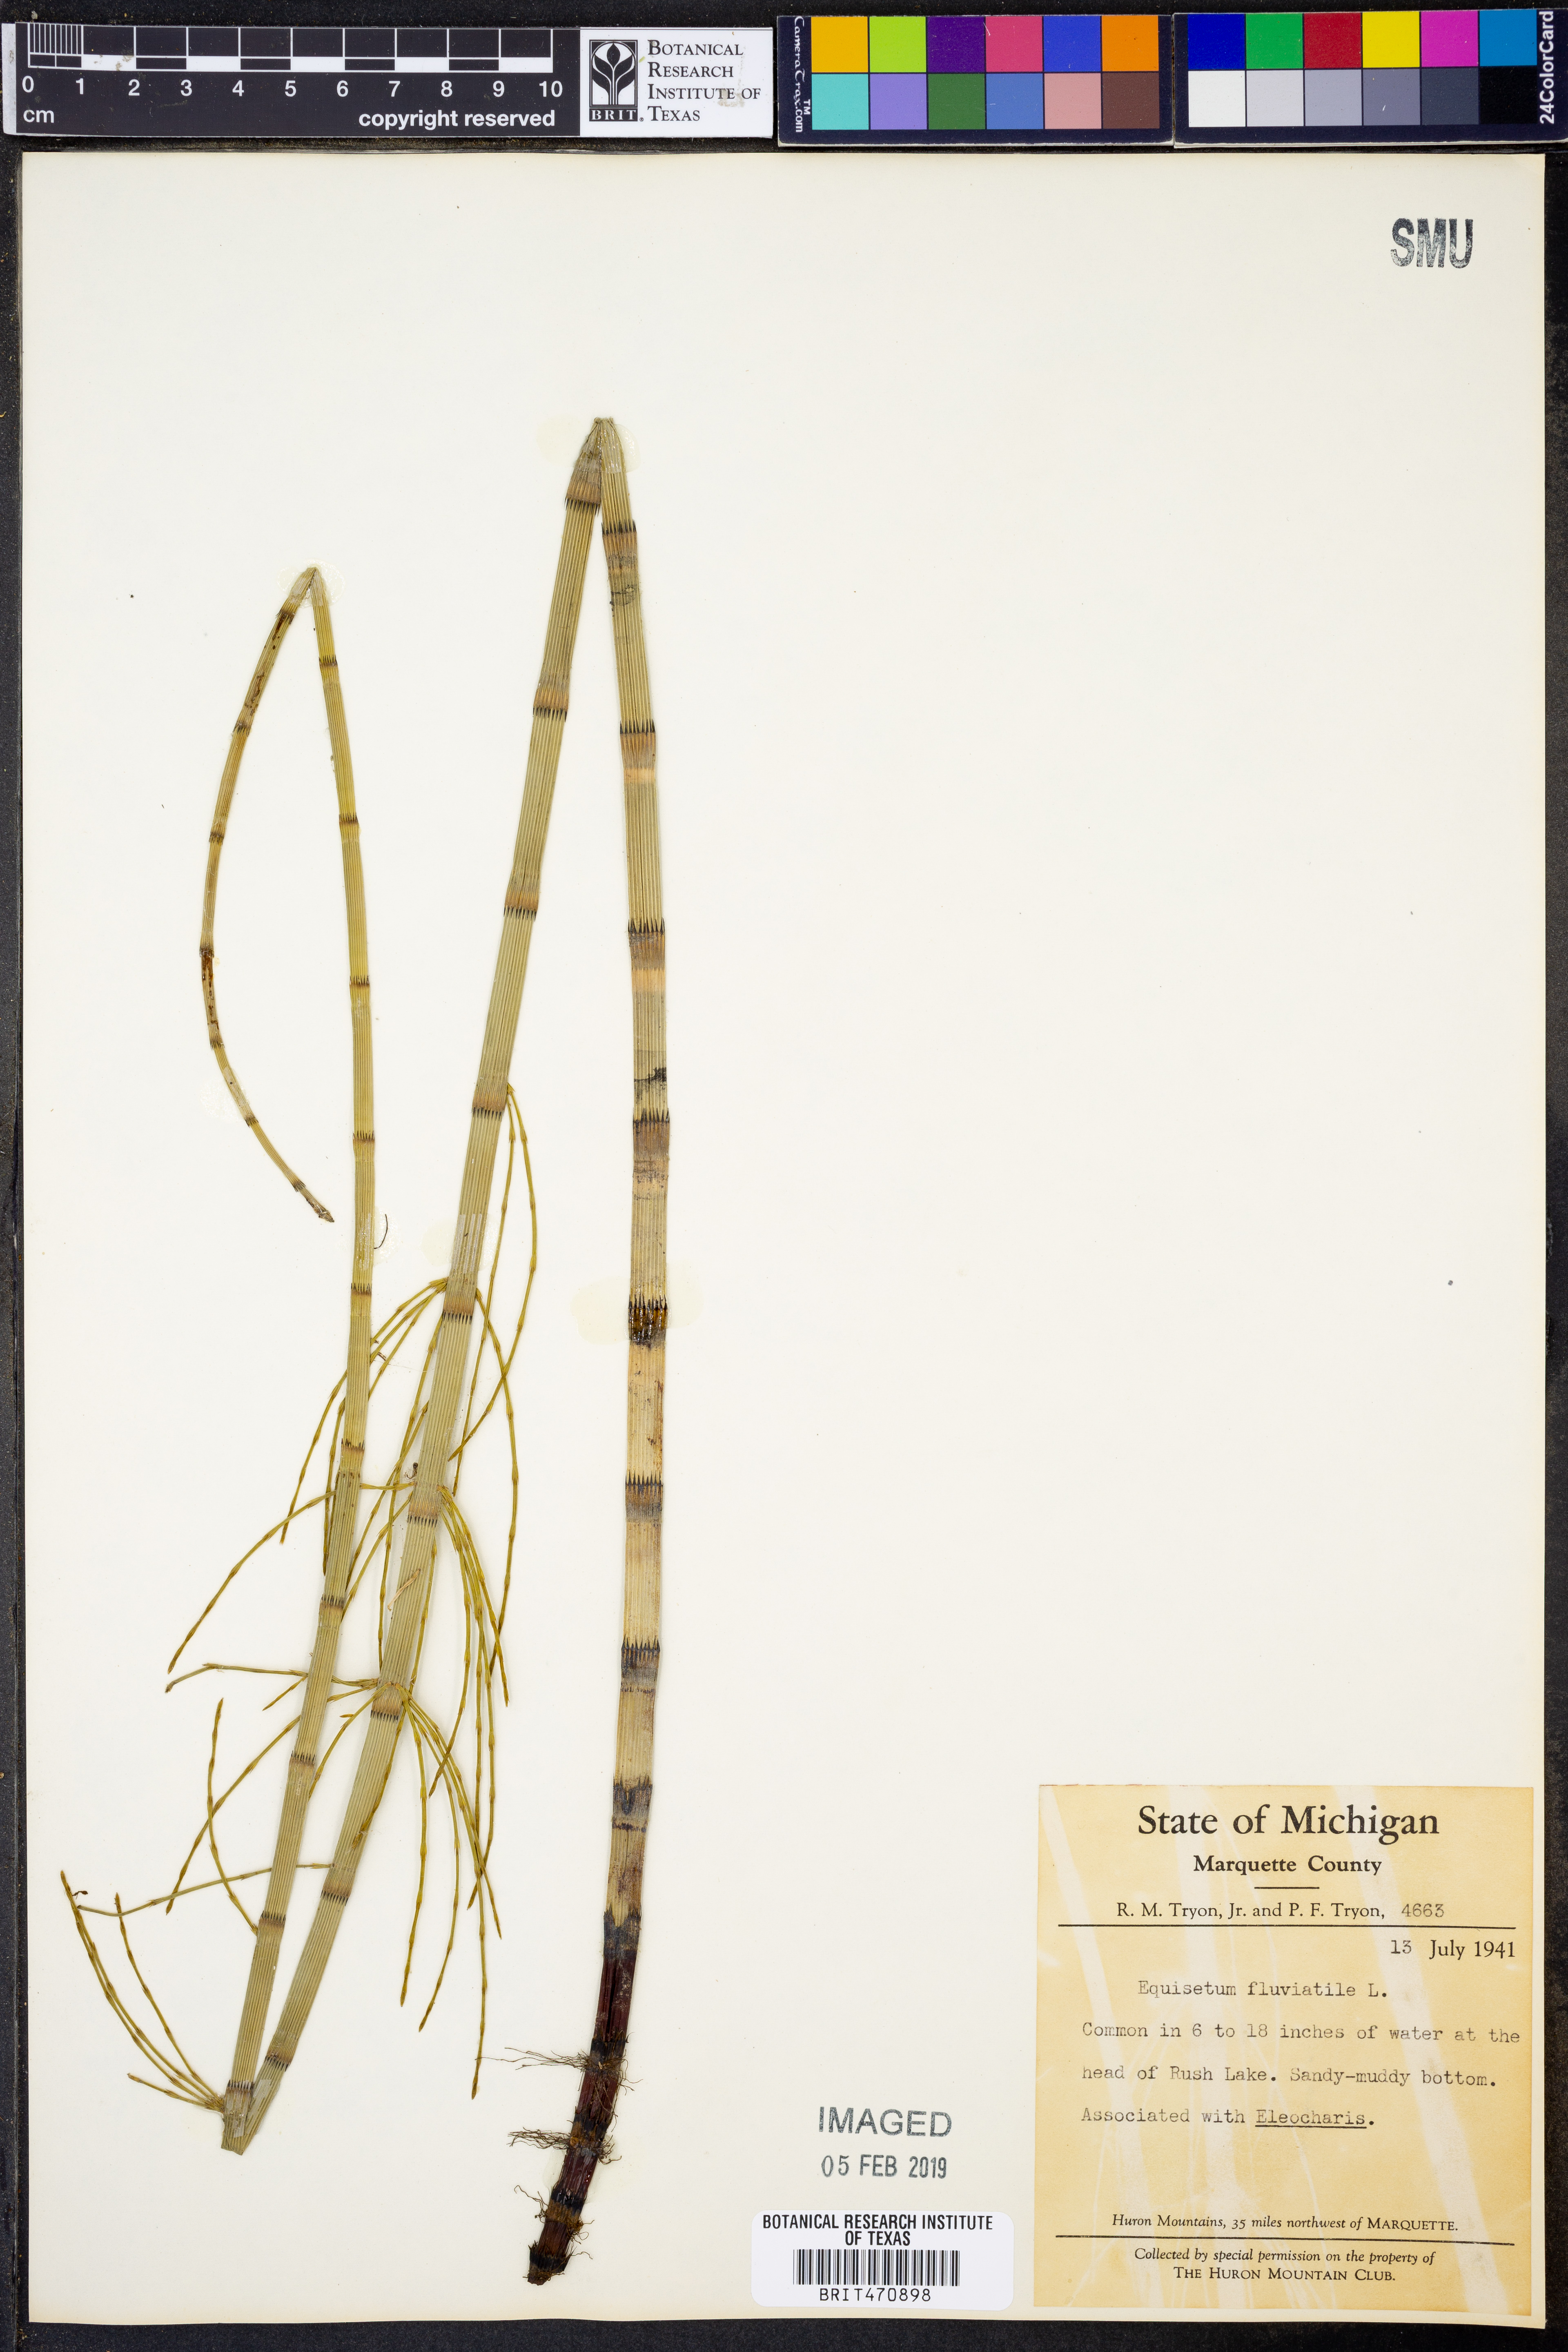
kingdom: Plantae
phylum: Tracheophyta
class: Polypodiopsida
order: Equisetales
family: Equisetaceae
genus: Equisetum
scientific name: Equisetum fluviatile
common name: Water horsetail
